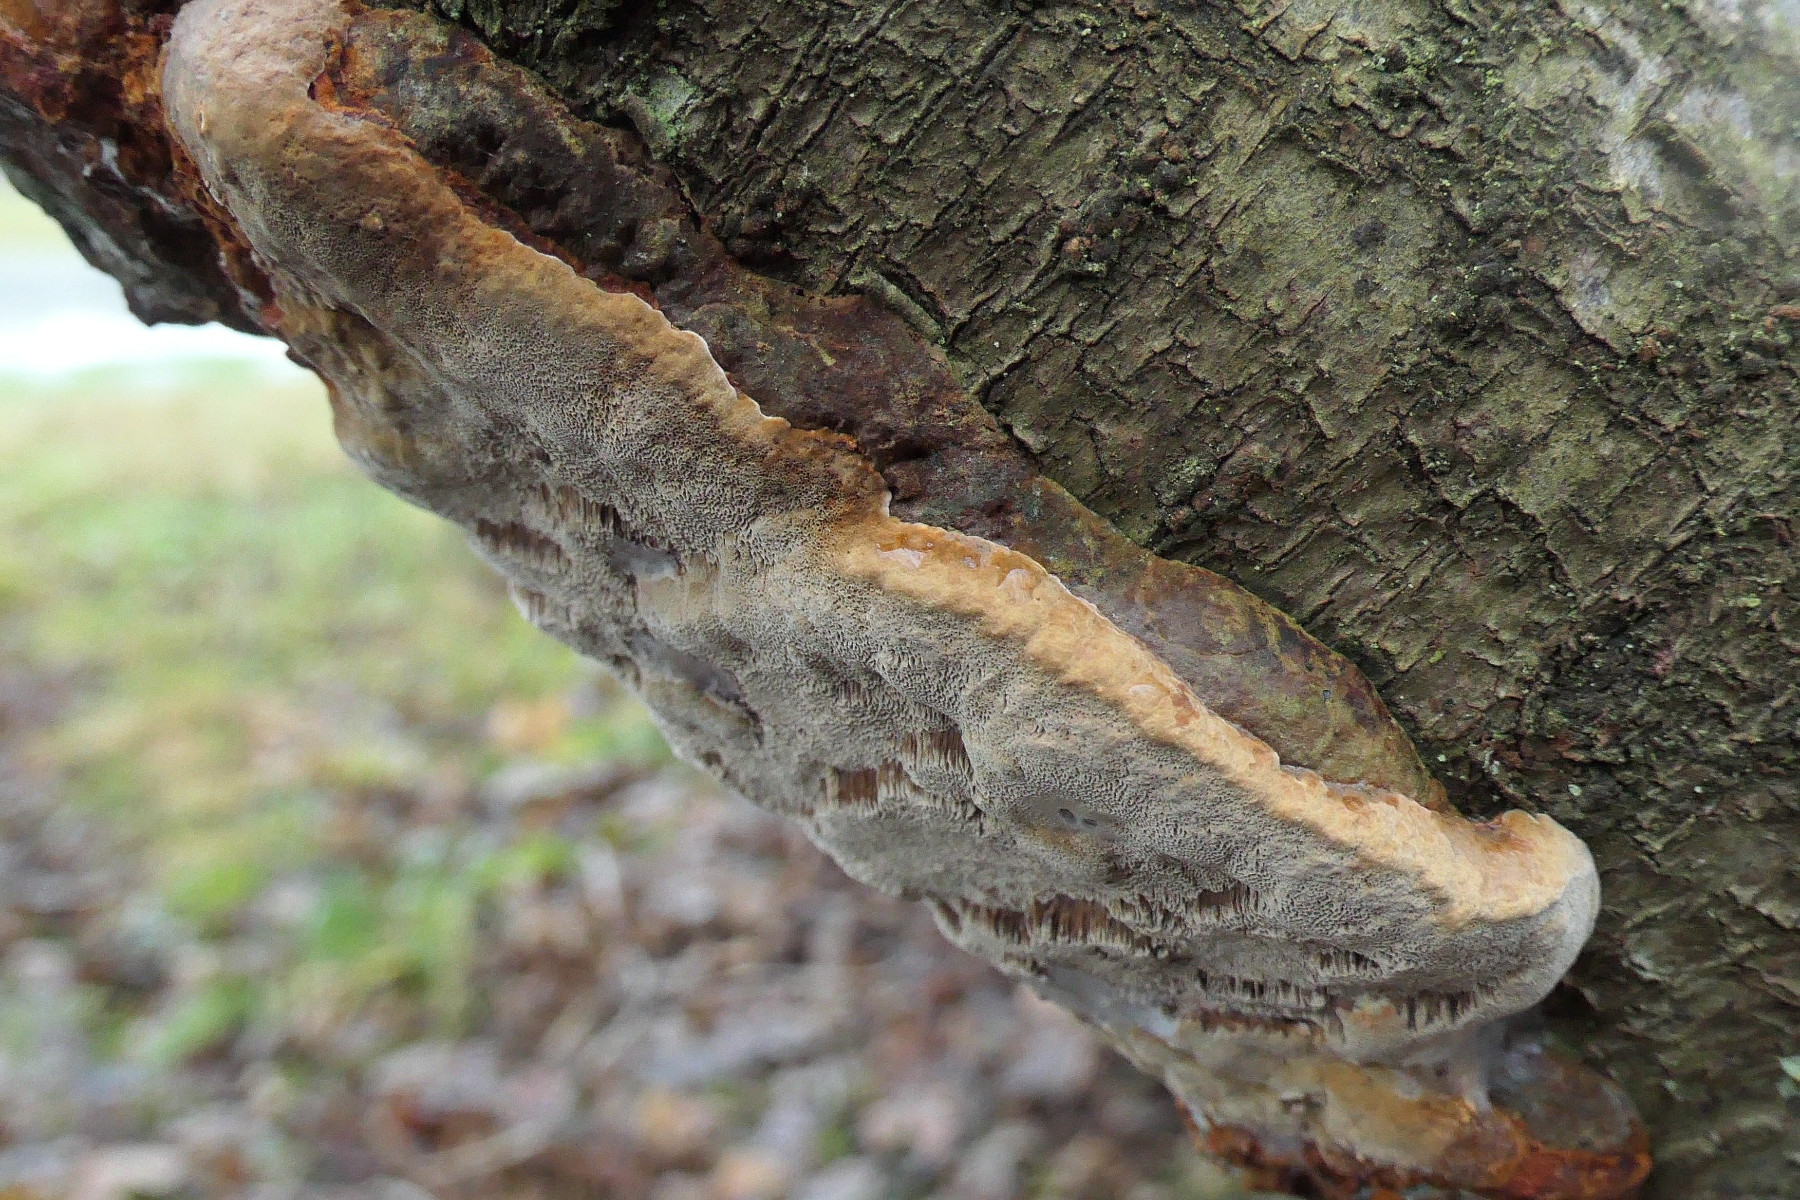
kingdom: Fungi
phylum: Basidiomycota
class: Agaricomycetes
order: Hymenochaetales
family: Hymenochaetaceae
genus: Phellinus
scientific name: Phellinus pomaceus
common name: blomme-ildporesvamp
